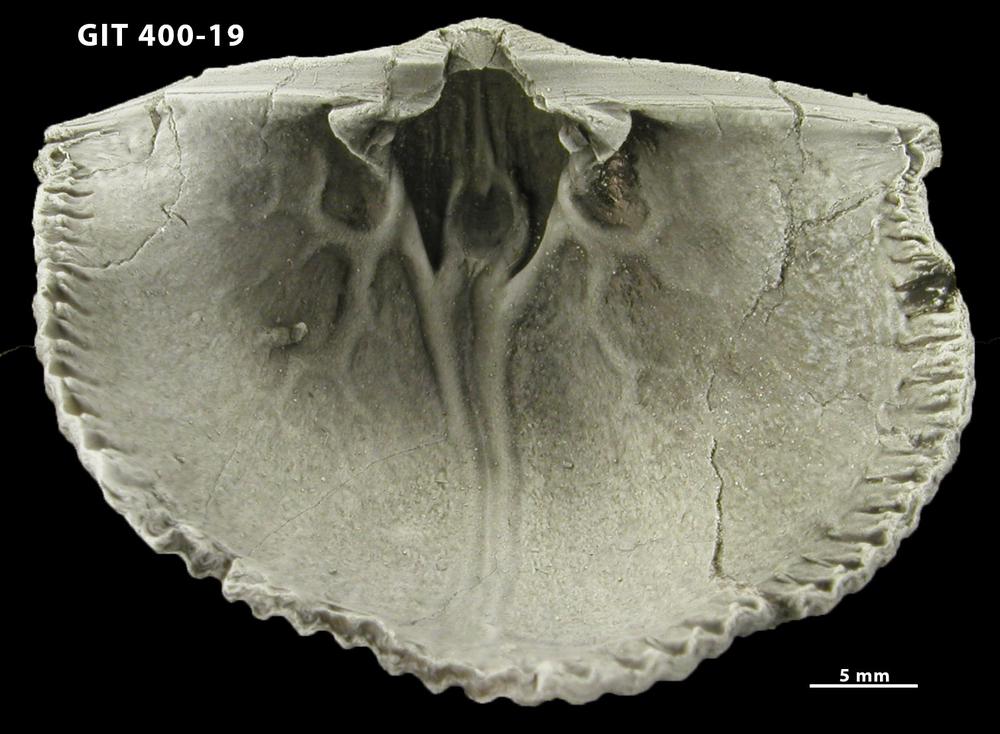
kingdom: Animalia
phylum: Brachiopoda
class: Rhynchonellata
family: Orthidae
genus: Cyrtonotella
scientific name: Cyrtonotella
